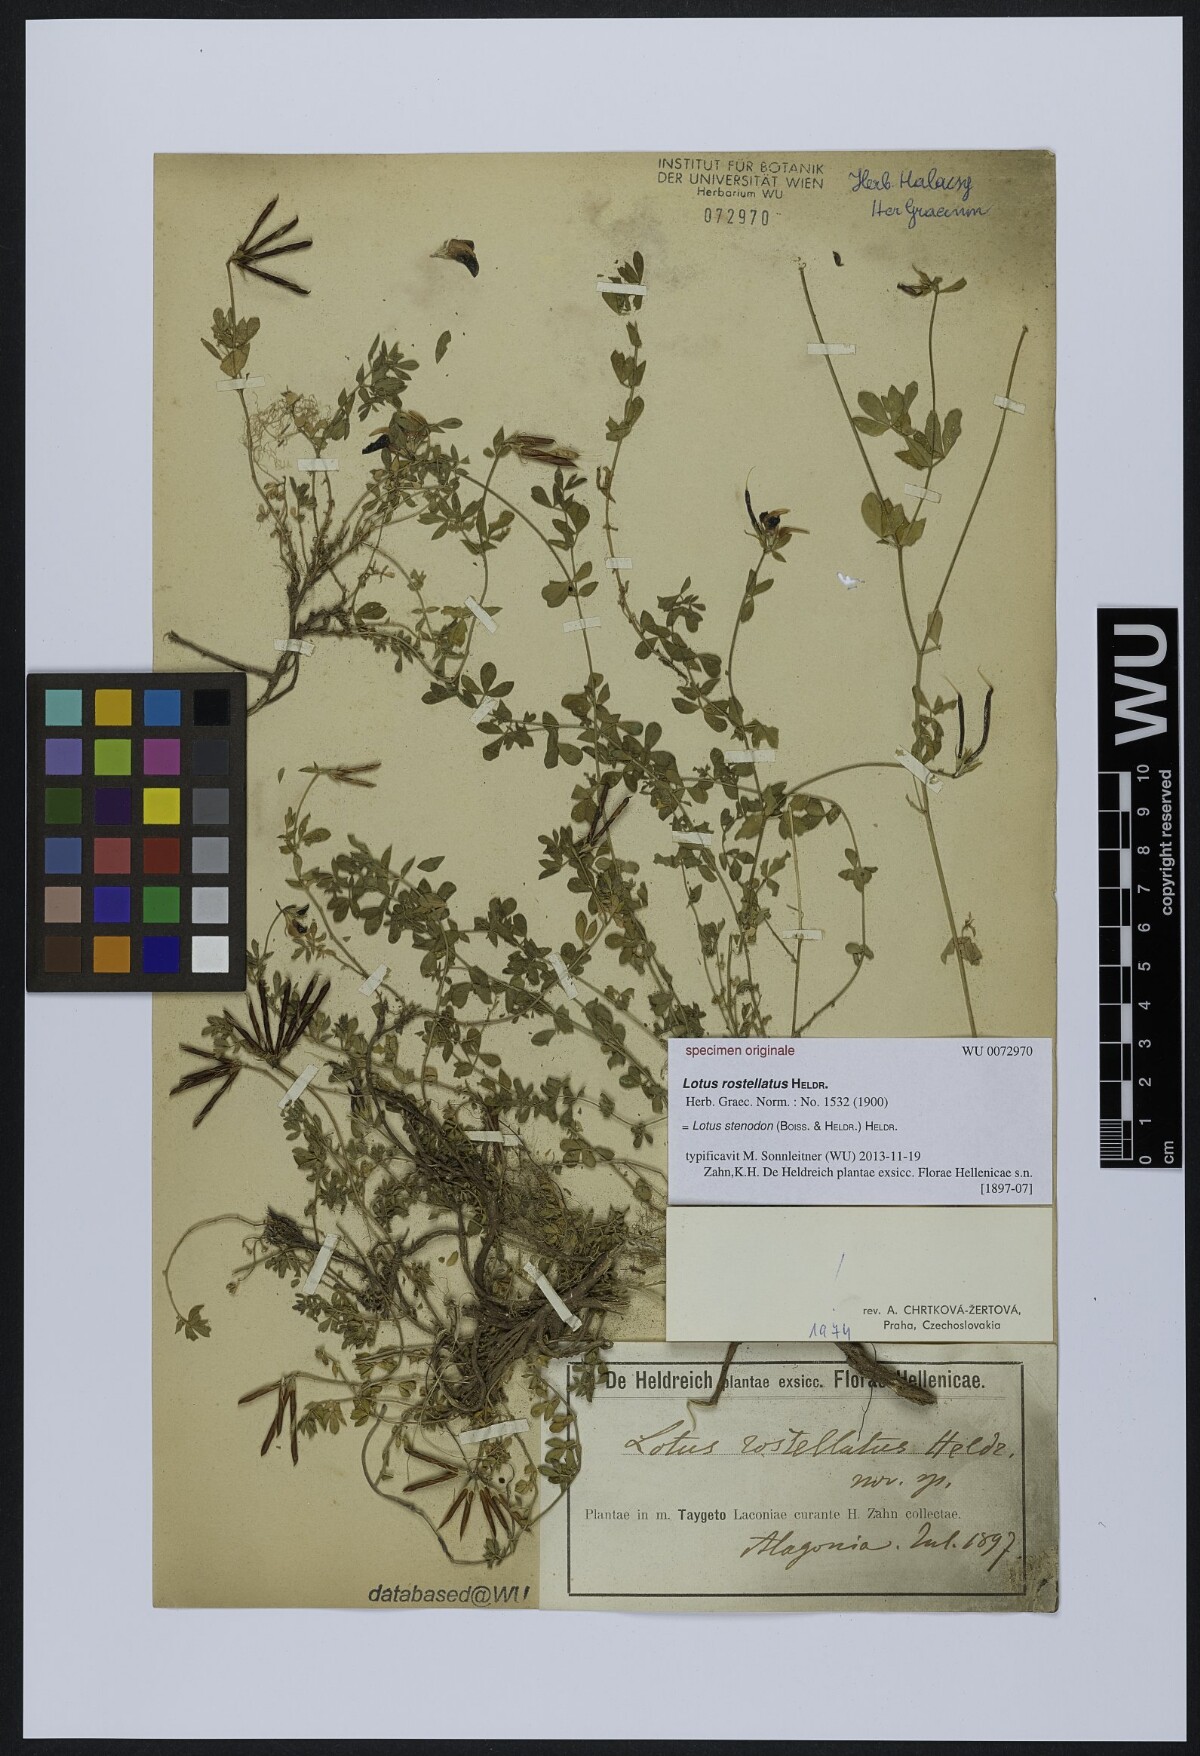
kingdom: Plantae
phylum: Tracheophyta
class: Magnoliopsida
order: Fabales
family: Fabaceae
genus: Lotus
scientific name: Lotus corniculatus
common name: Common bird's-foot-trefoil
